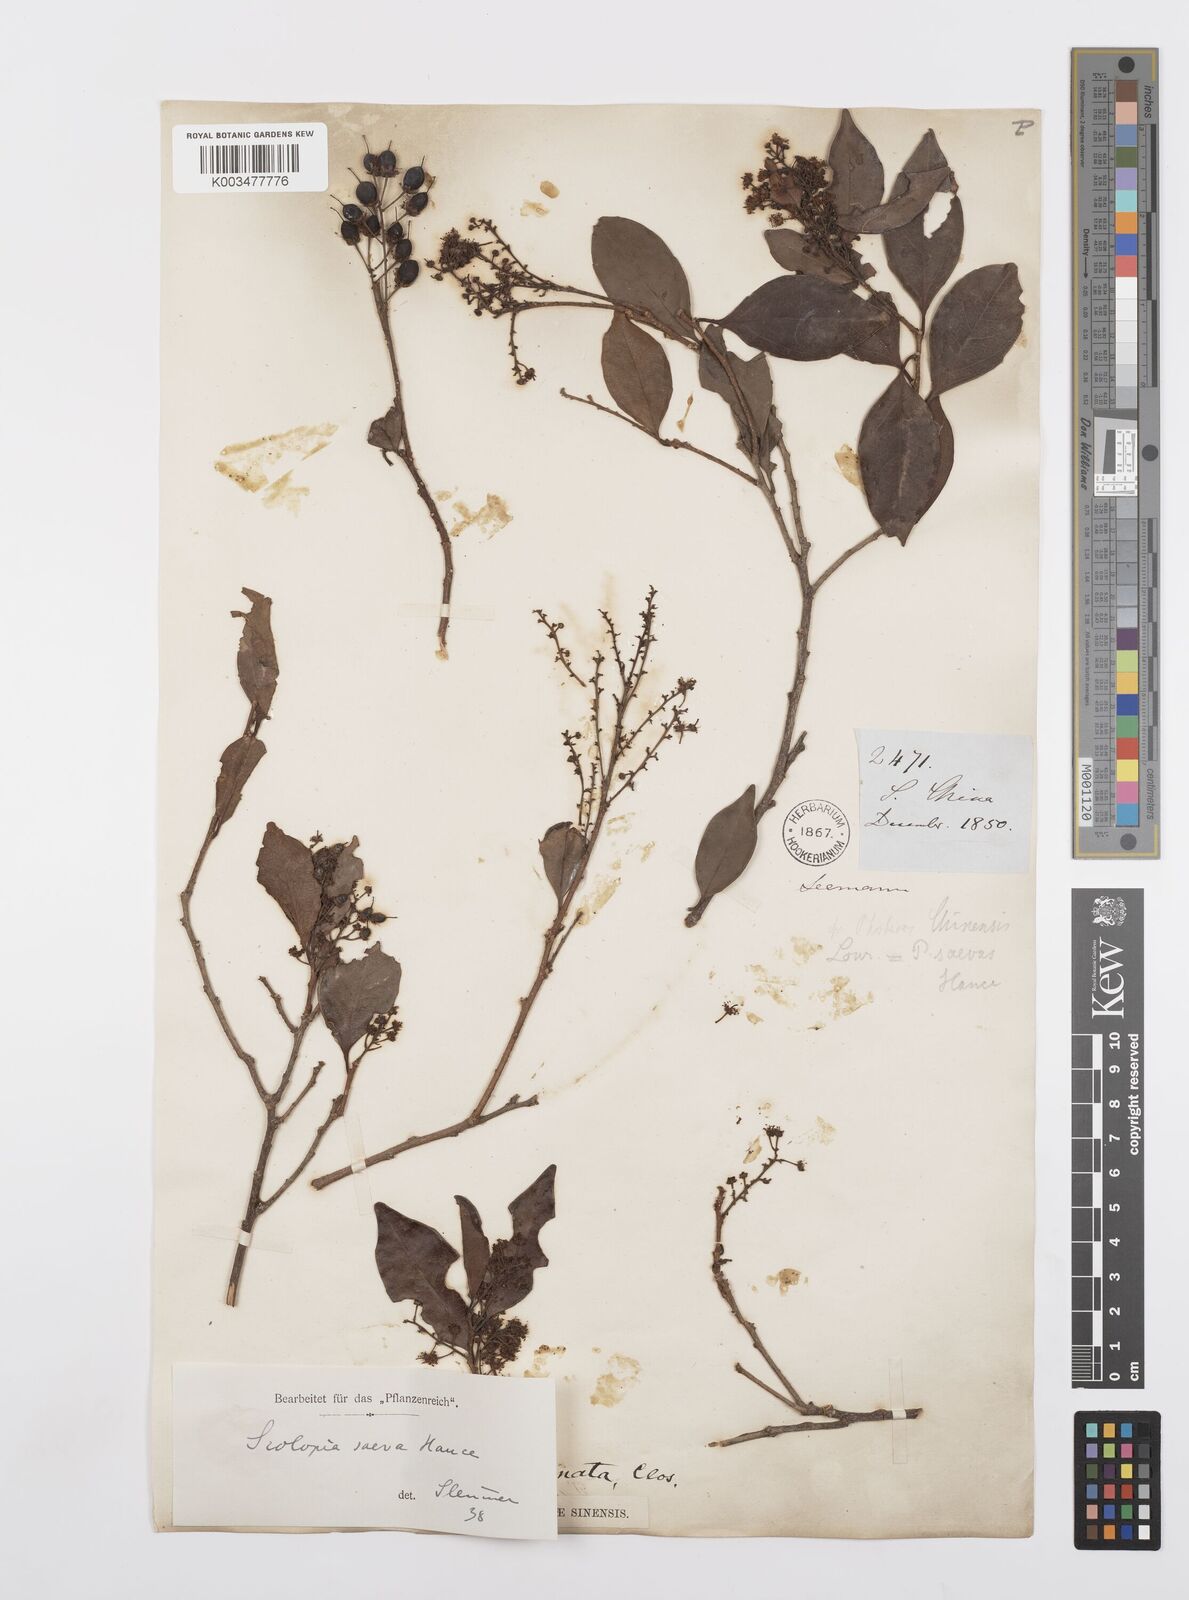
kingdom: Plantae
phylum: Tracheophyta
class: Magnoliopsida
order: Malpighiales
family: Salicaceae
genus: Scolopia
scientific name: Scolopia saeva
